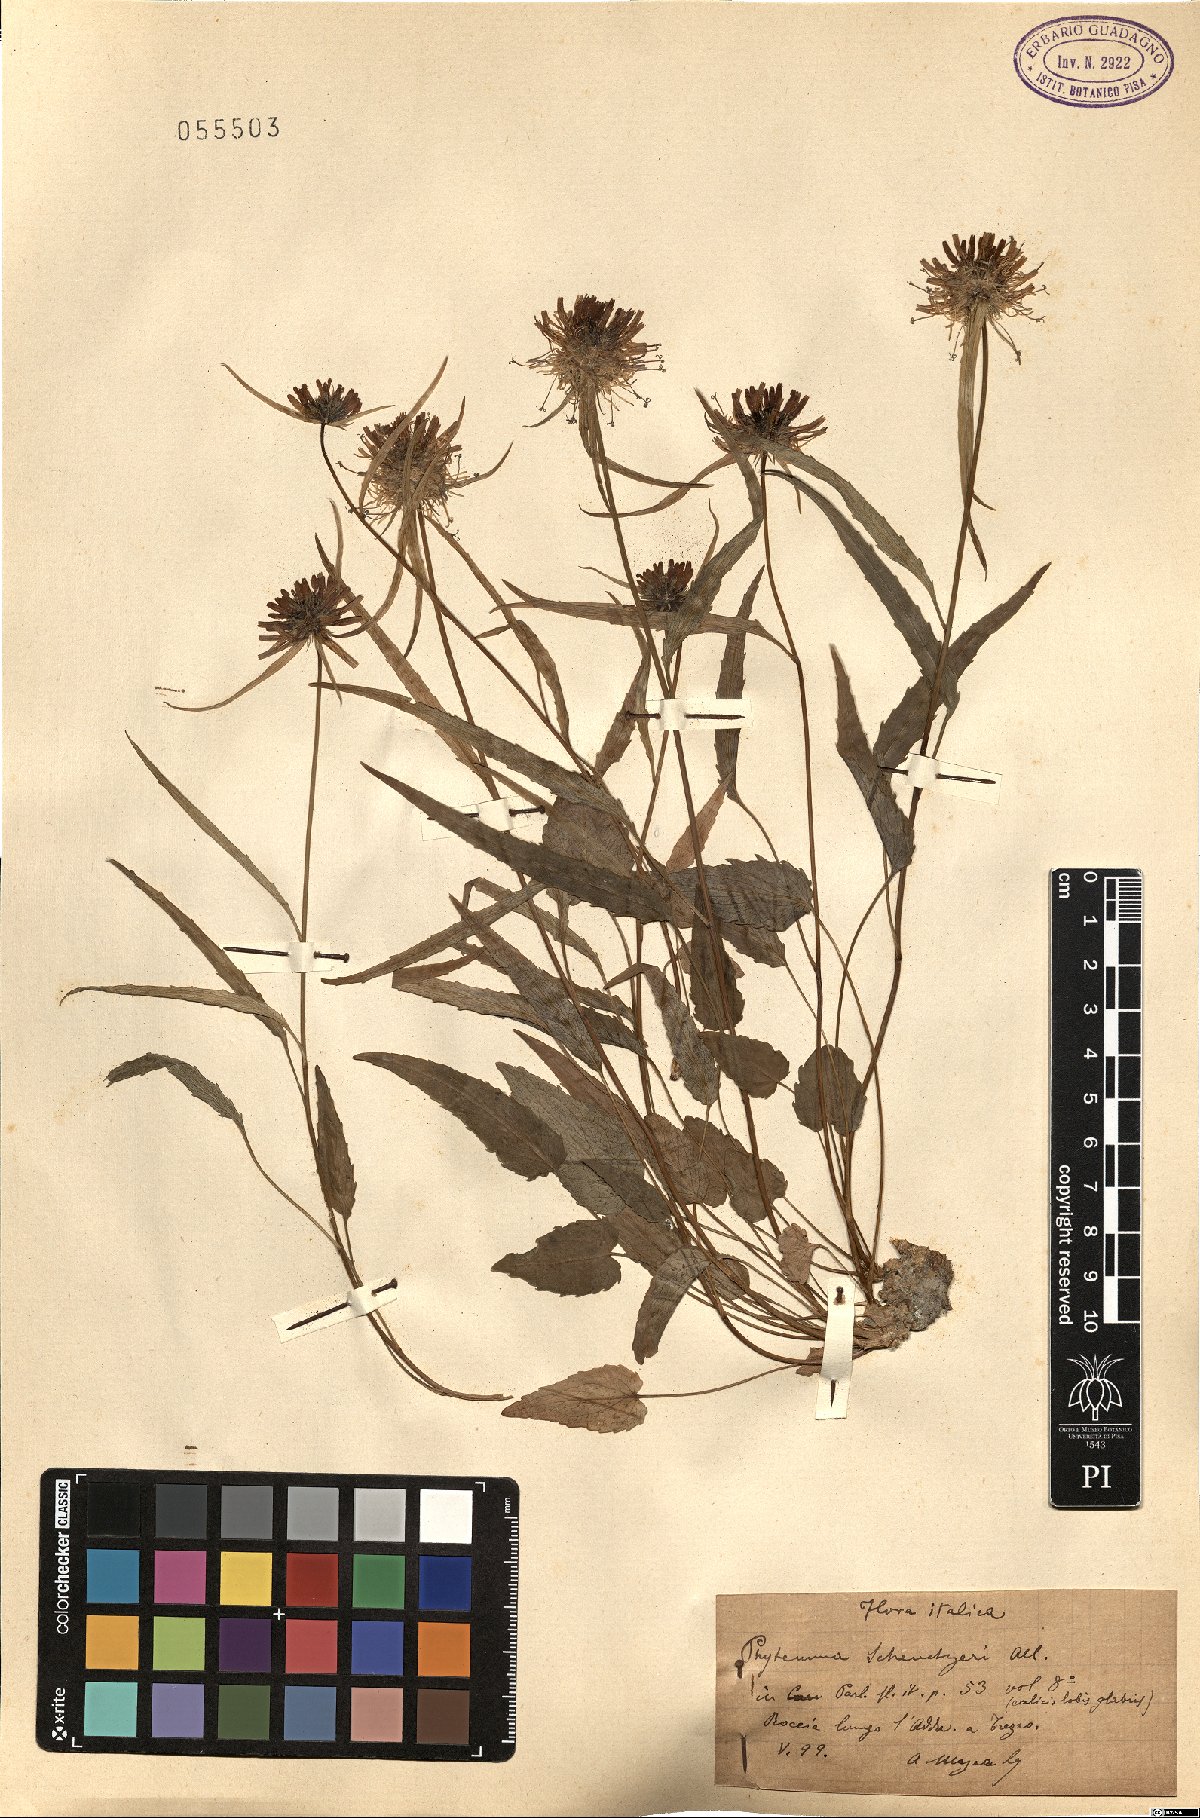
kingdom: Plantae
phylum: Tracheophyta
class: Magnoliopsida
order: Asterales
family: Campanulaceae
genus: Phyteuma
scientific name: Phyteuma scheuchzeri
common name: Oxford rampion
